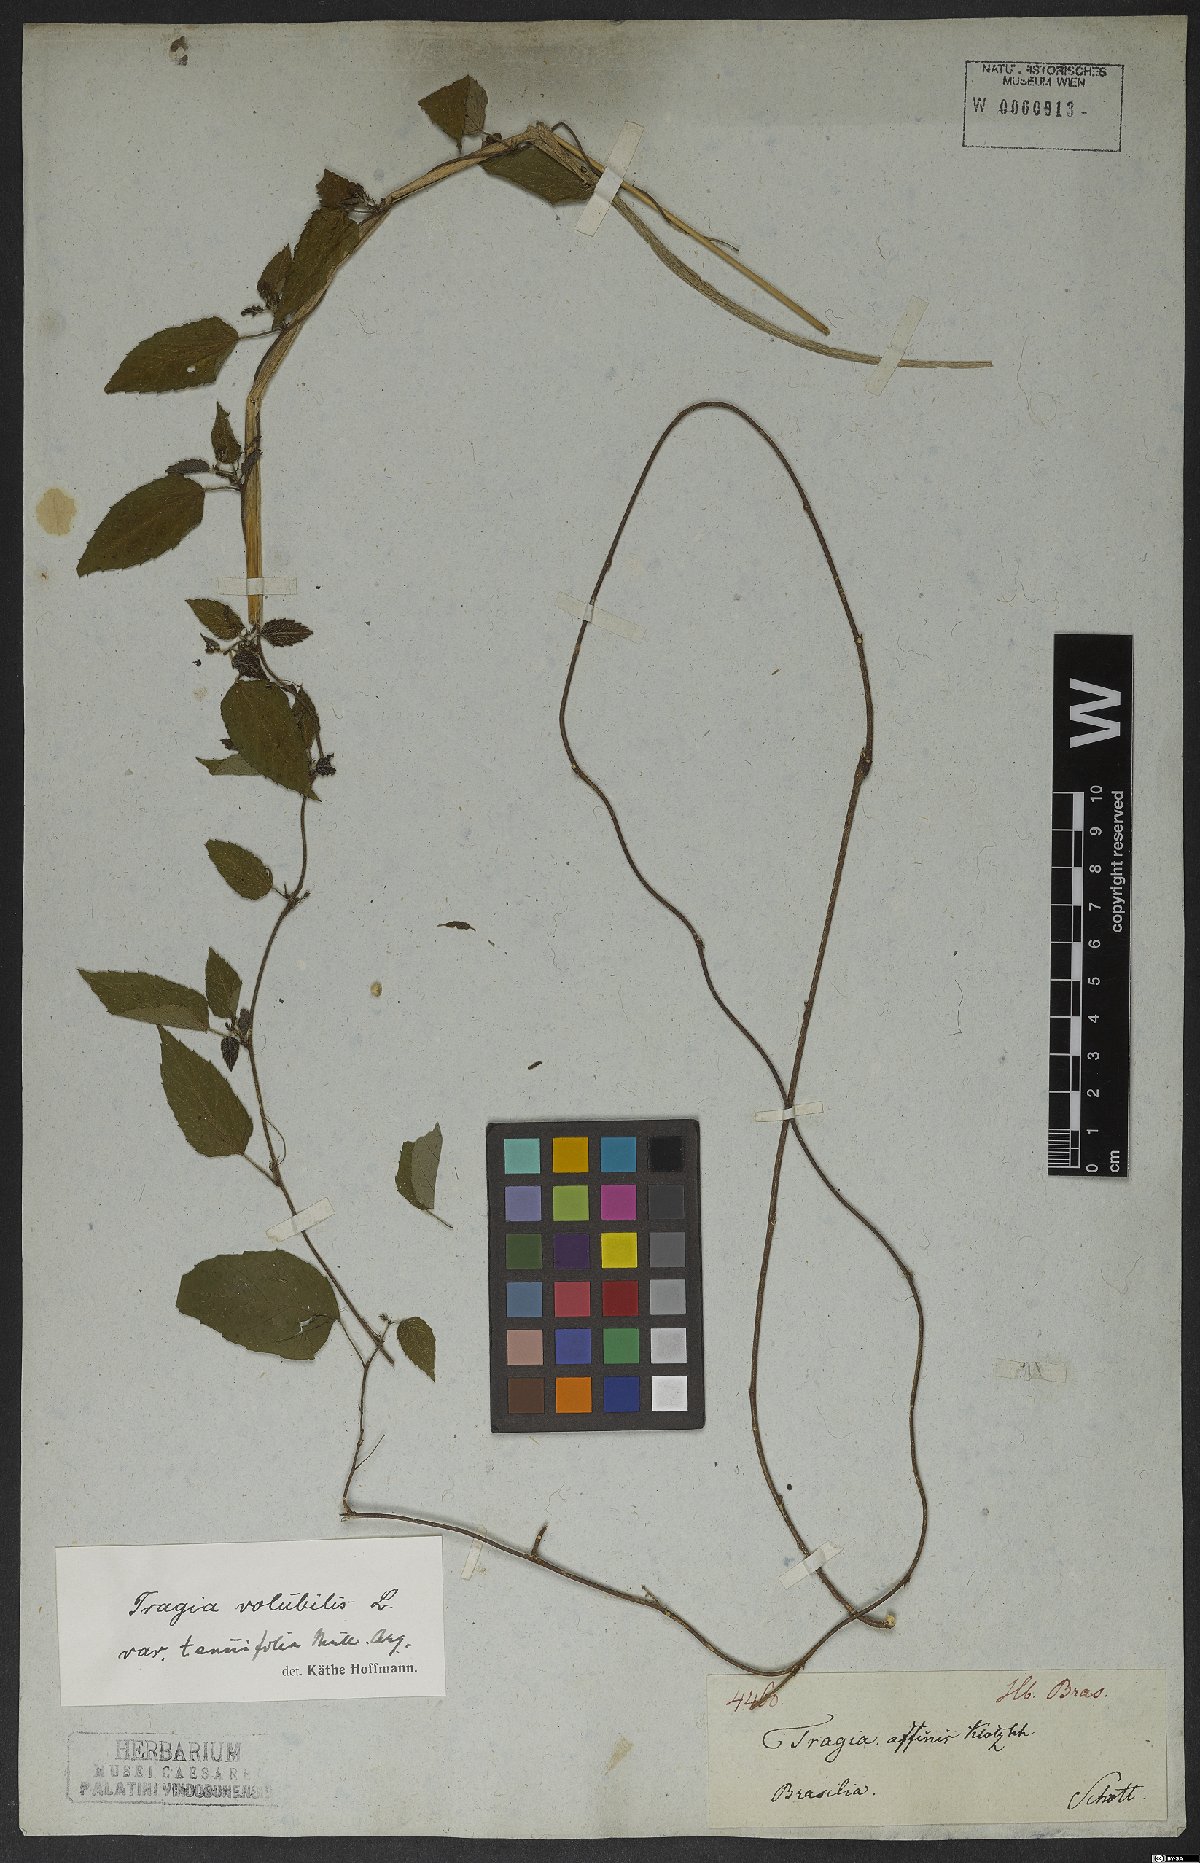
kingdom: Plantae
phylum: Tracheophyta
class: Magnoliopsida
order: Malpighiales
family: Euphorbiaceae
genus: Tragia
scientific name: Tragia volubilis
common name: Twining cow-itch
